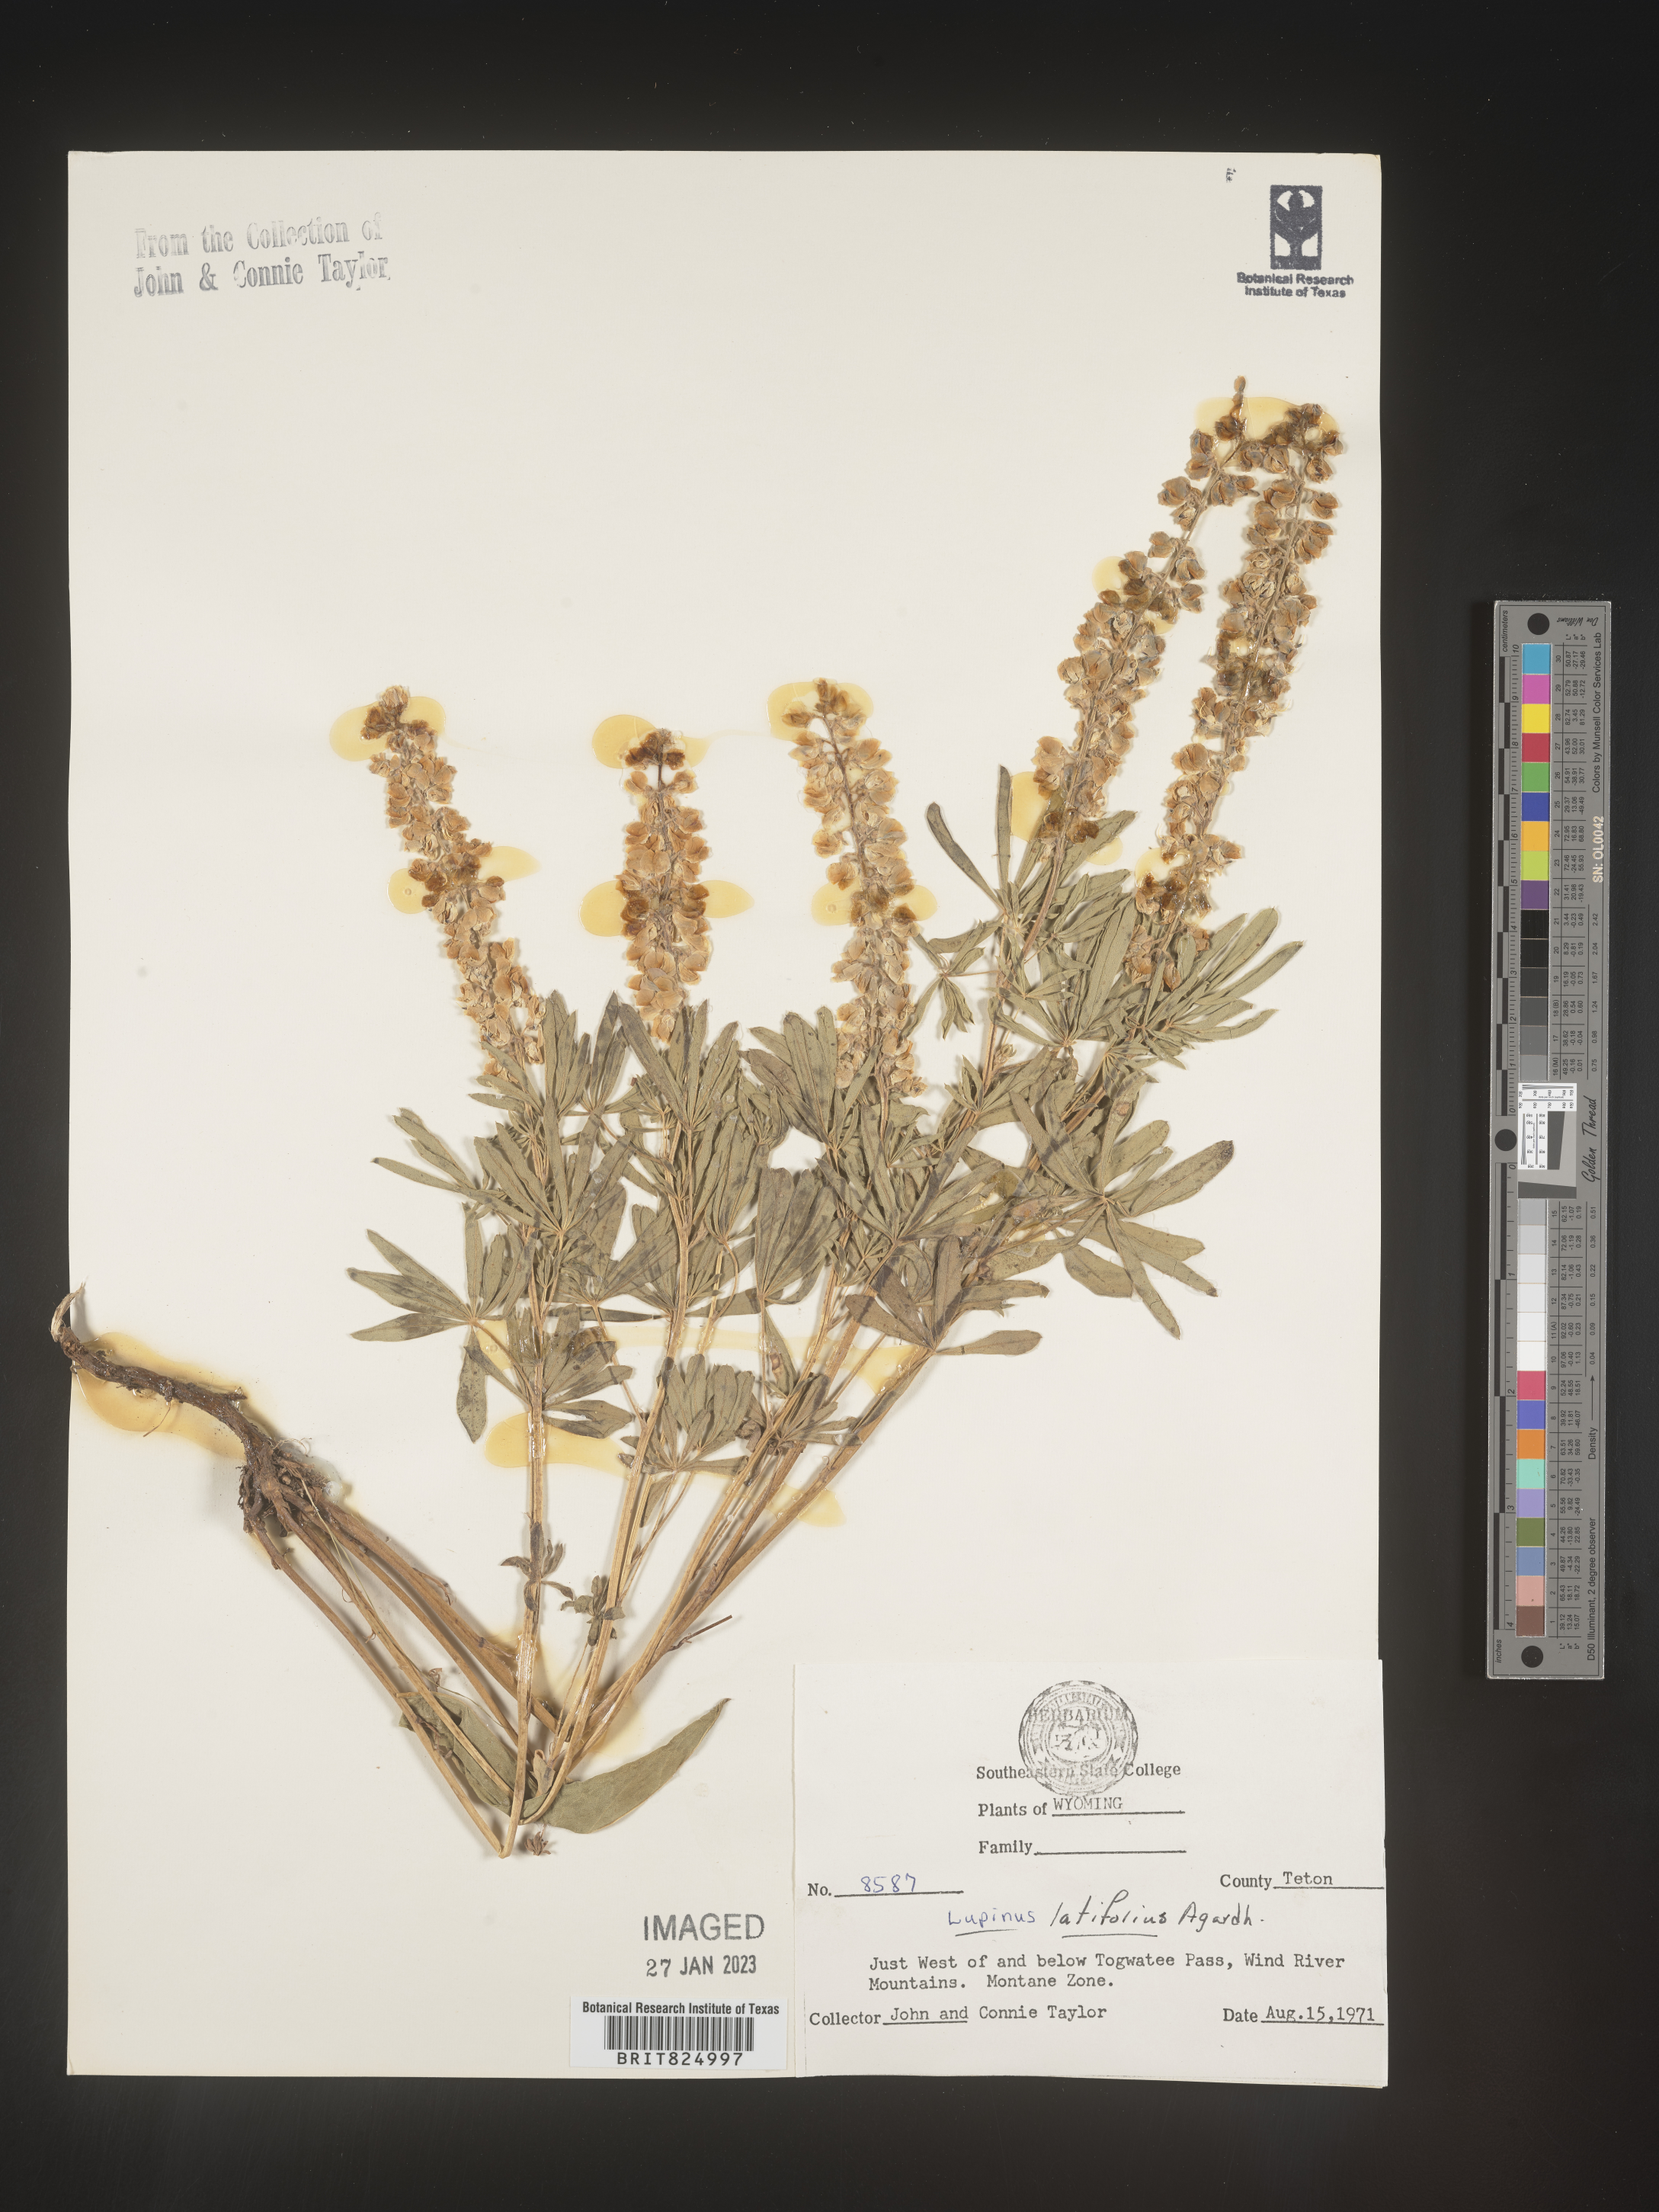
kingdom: Plantae
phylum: Tracheophyta
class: Magnoliopsida
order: Fabales
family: Fabaceae
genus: Lupinus
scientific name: Lupinus
